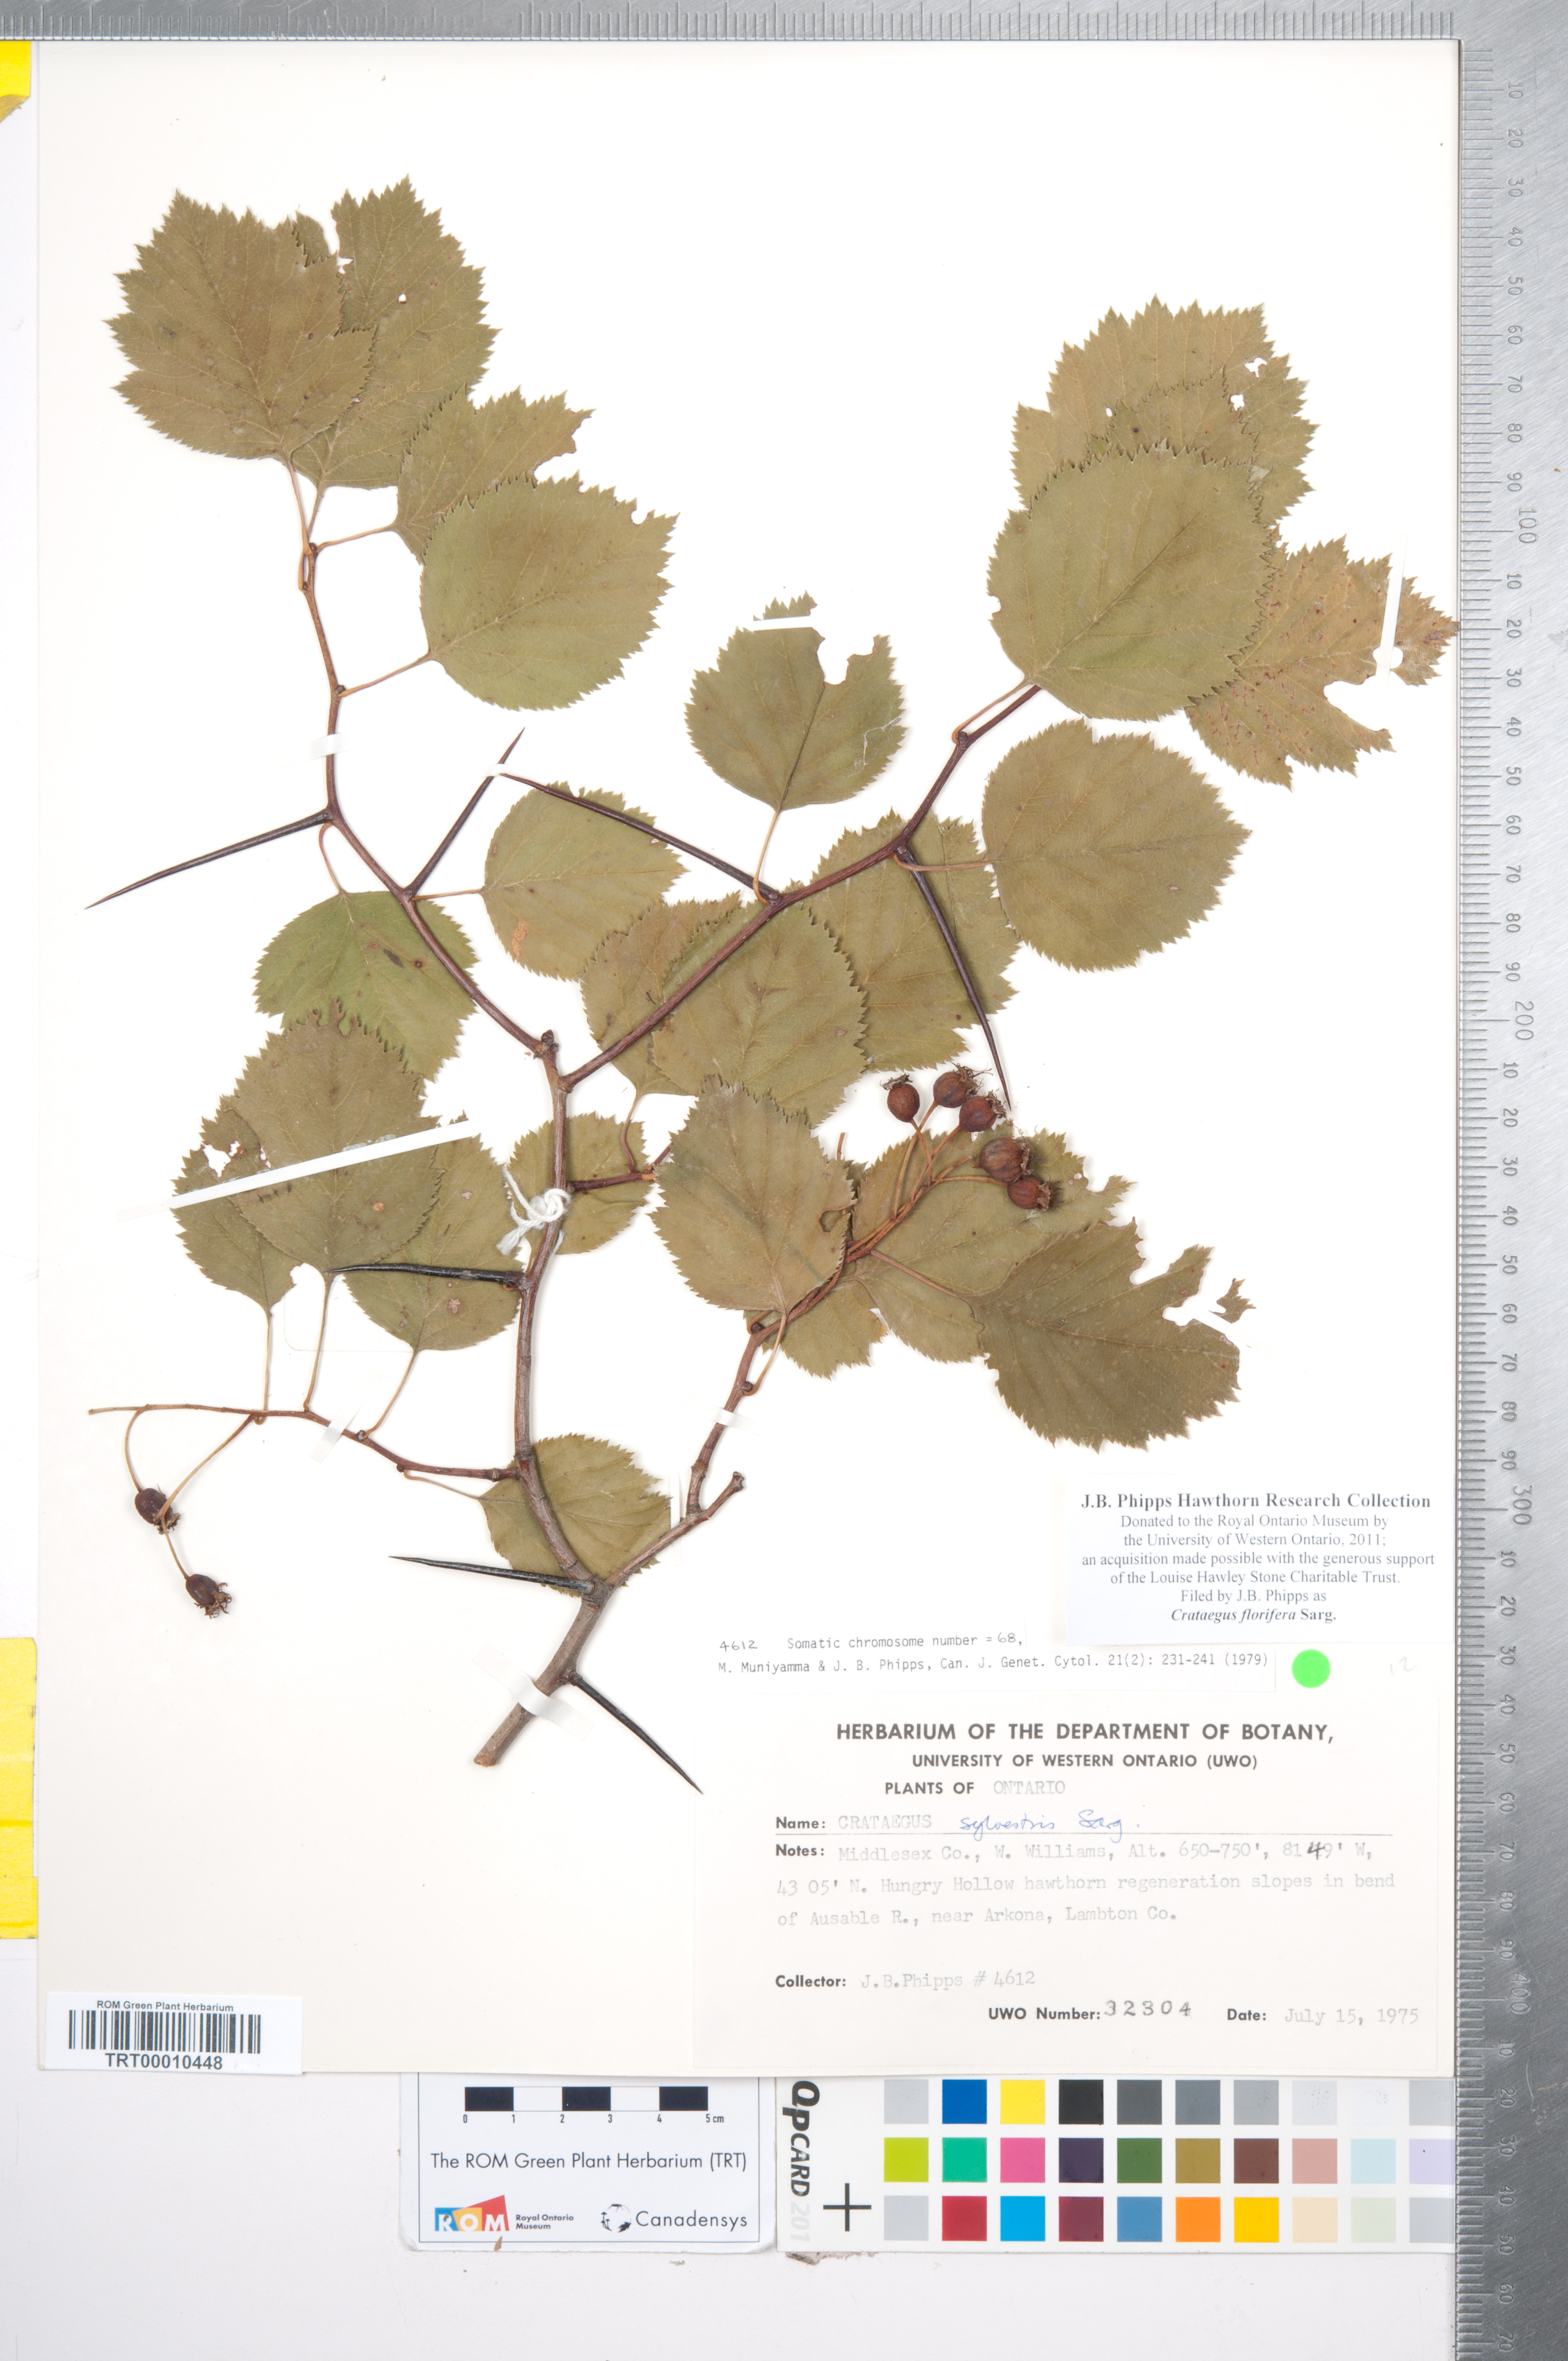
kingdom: Plantae
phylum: Tracheophyta
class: Magnoliopsida
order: Rosales
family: Rosaceae
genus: Crataegus
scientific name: Crataegus florifera
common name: Woodland hawthorn
